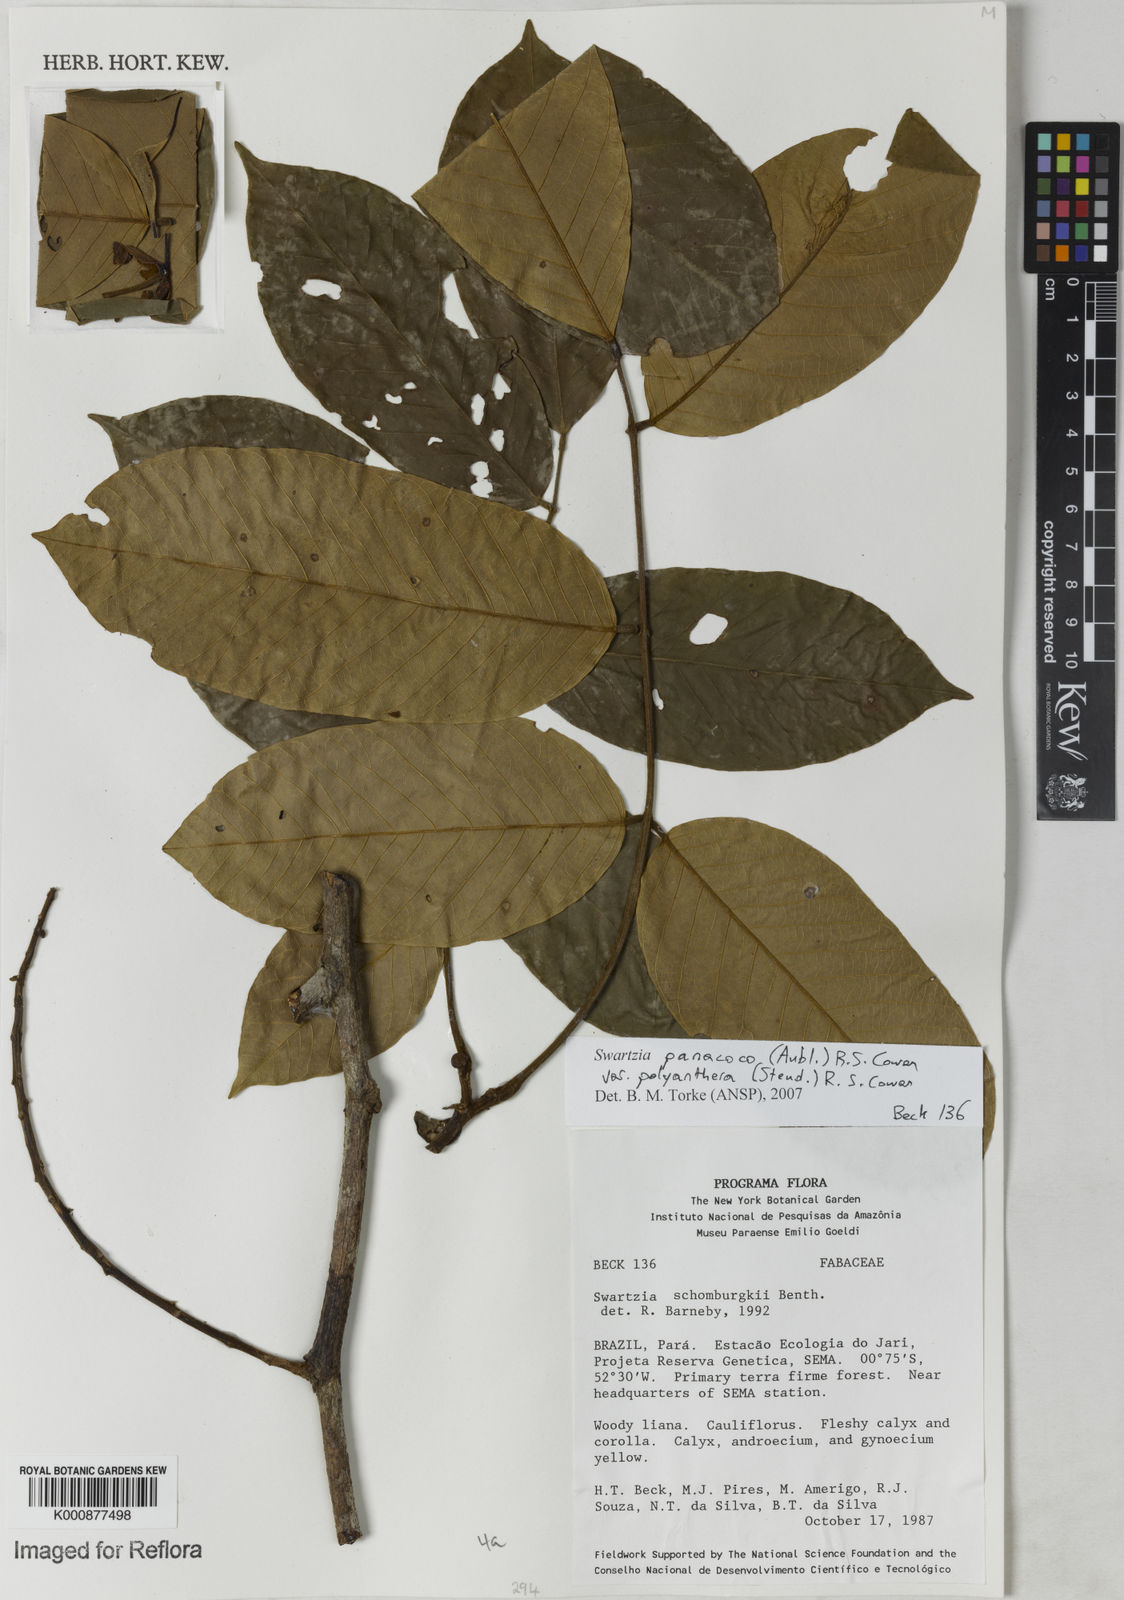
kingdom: Plantae
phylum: Tracheophyta
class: Magnoliopsida
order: Fabales
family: Fabaceae
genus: Swartzia
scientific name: Swartzia panacoco
